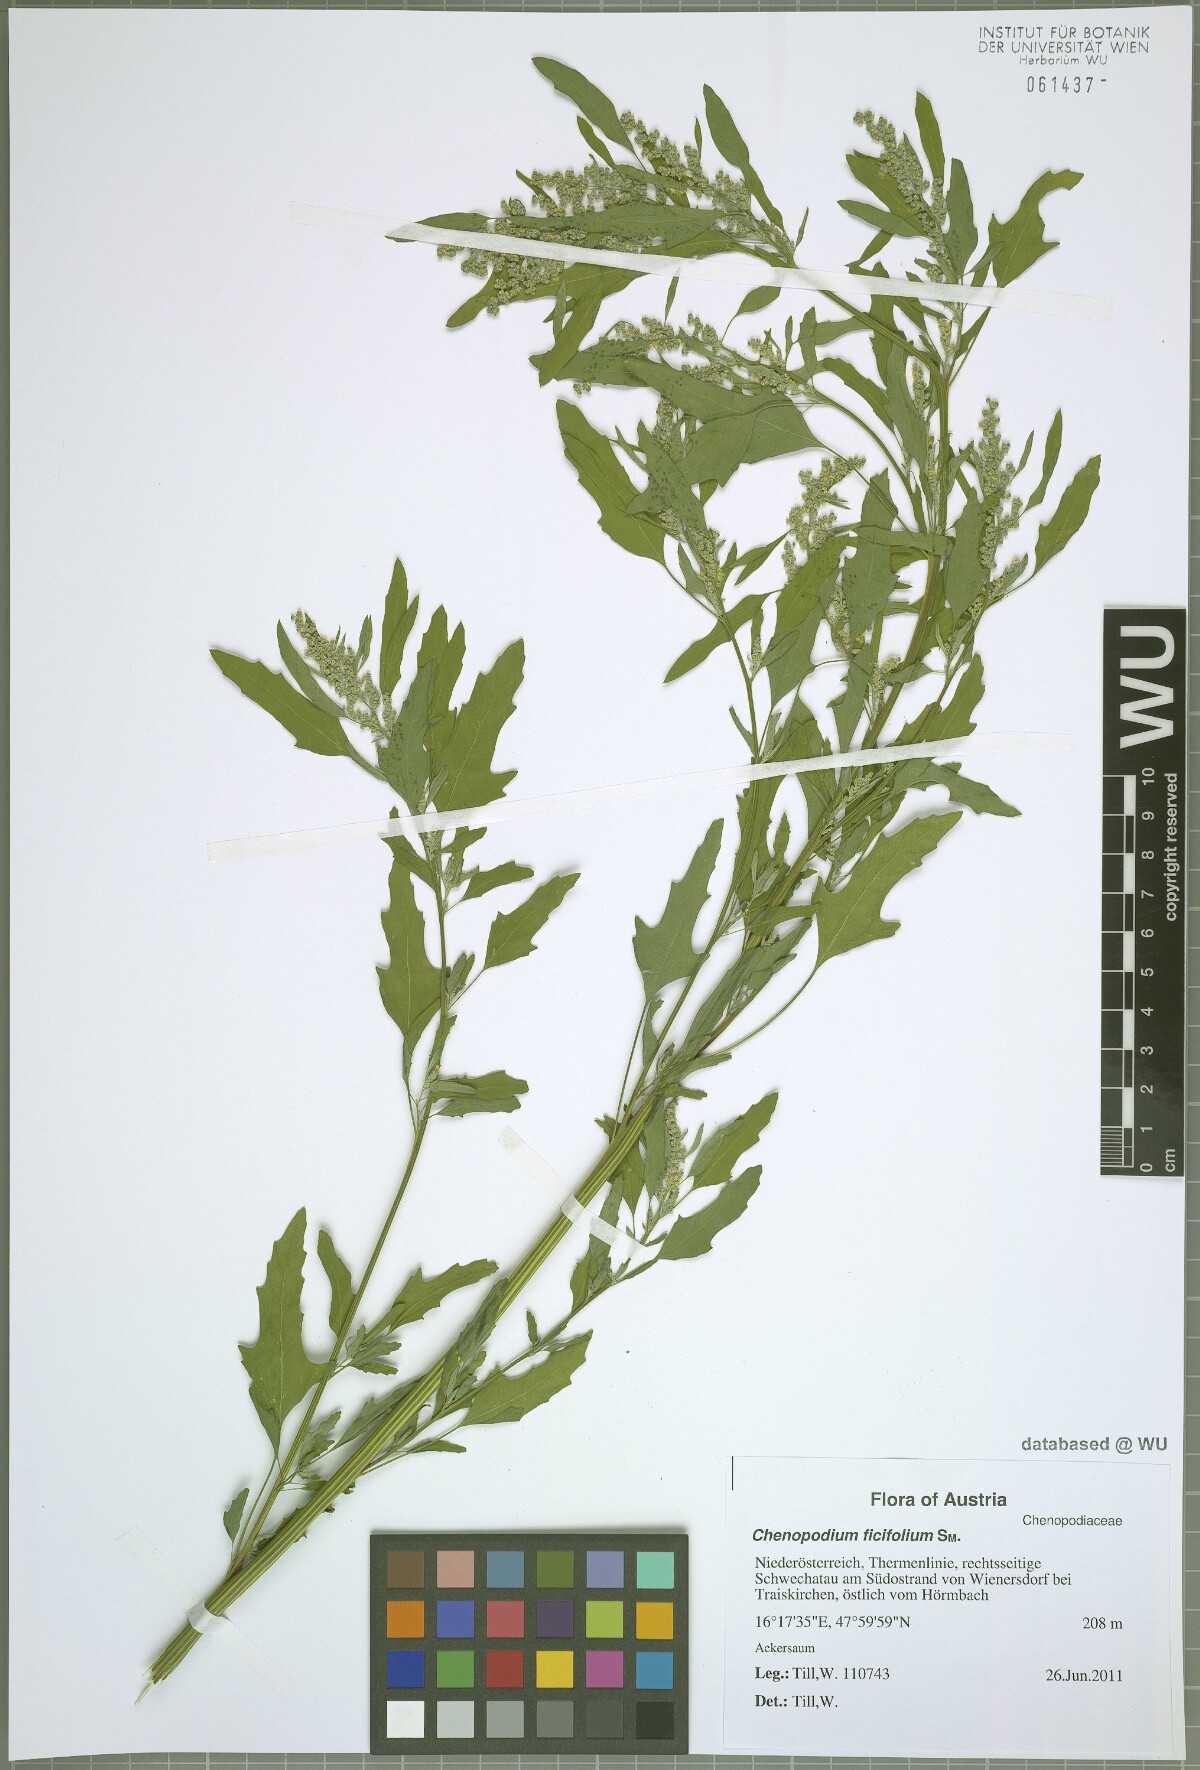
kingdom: Plantae
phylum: Tracheophyta
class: Magnoliopsida
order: Caryophyllales
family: Amaranthaceae
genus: Chenopodium
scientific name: Chenopodium ficifolium
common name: Fig-leaved goosefoot
